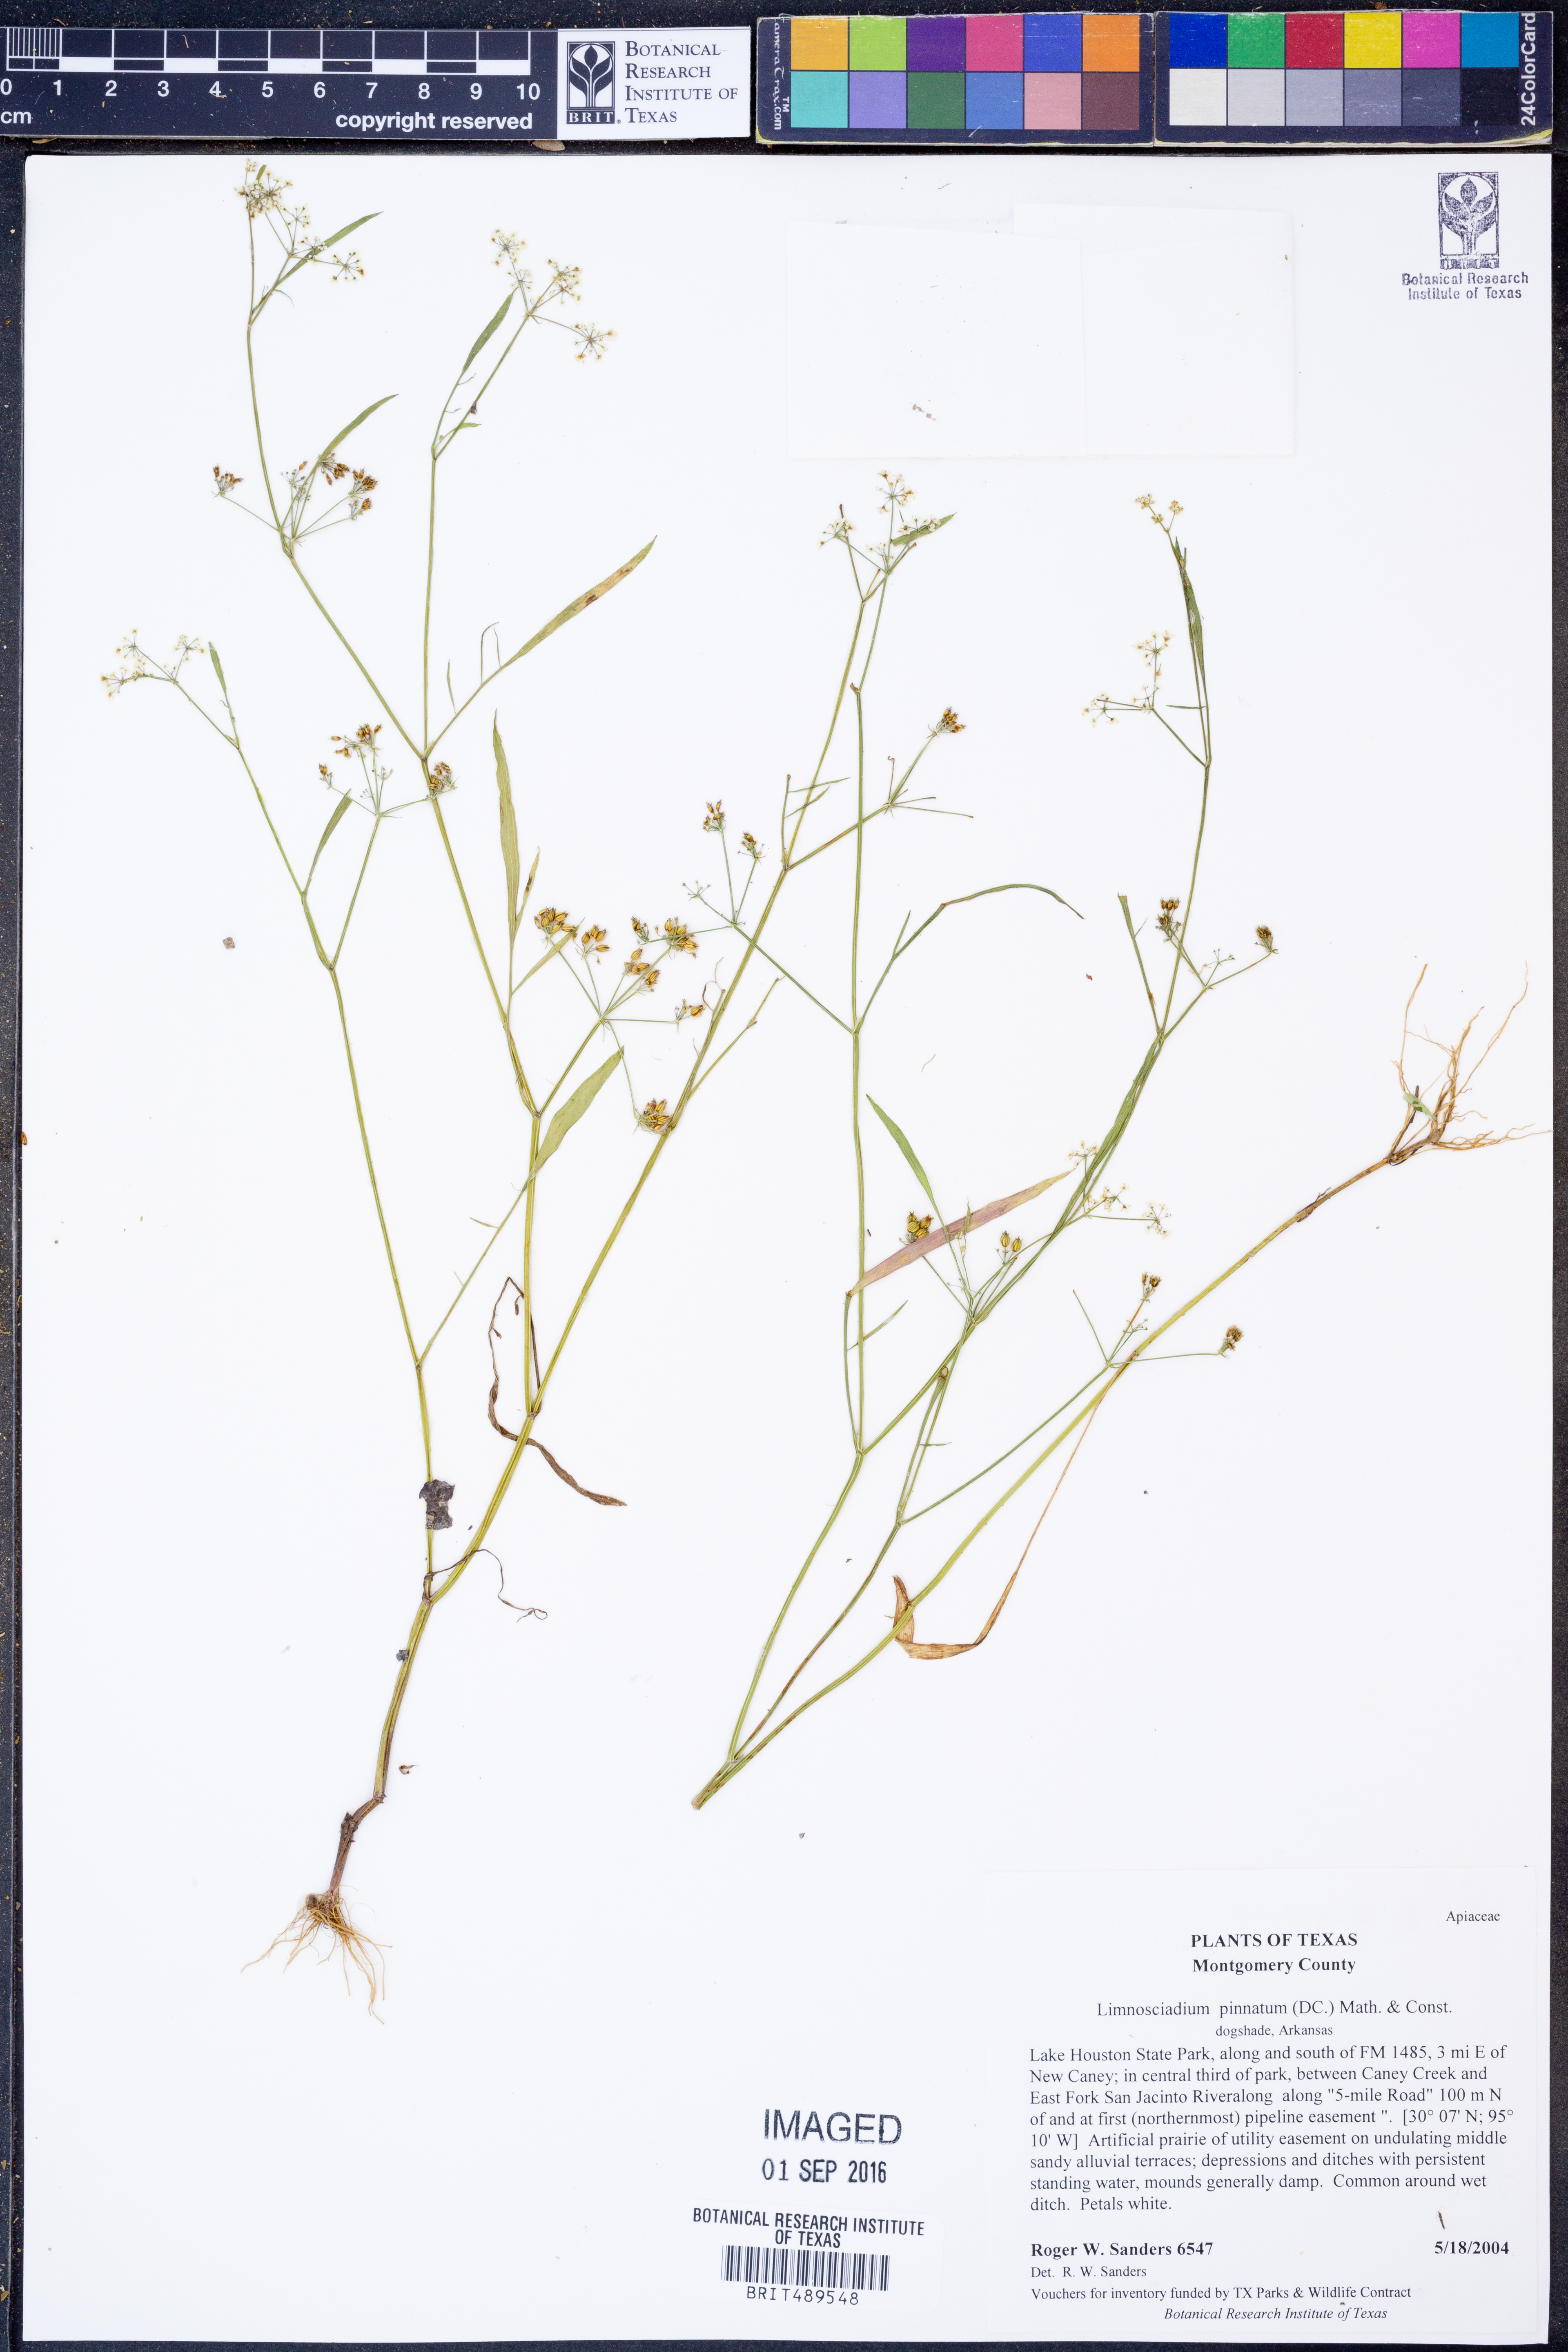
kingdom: Plantae
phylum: Tracheophyta
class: Magnoliopsida
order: Apiales
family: Apiaceae
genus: Limnosciadium
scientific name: Limnosciadium pinnatum
